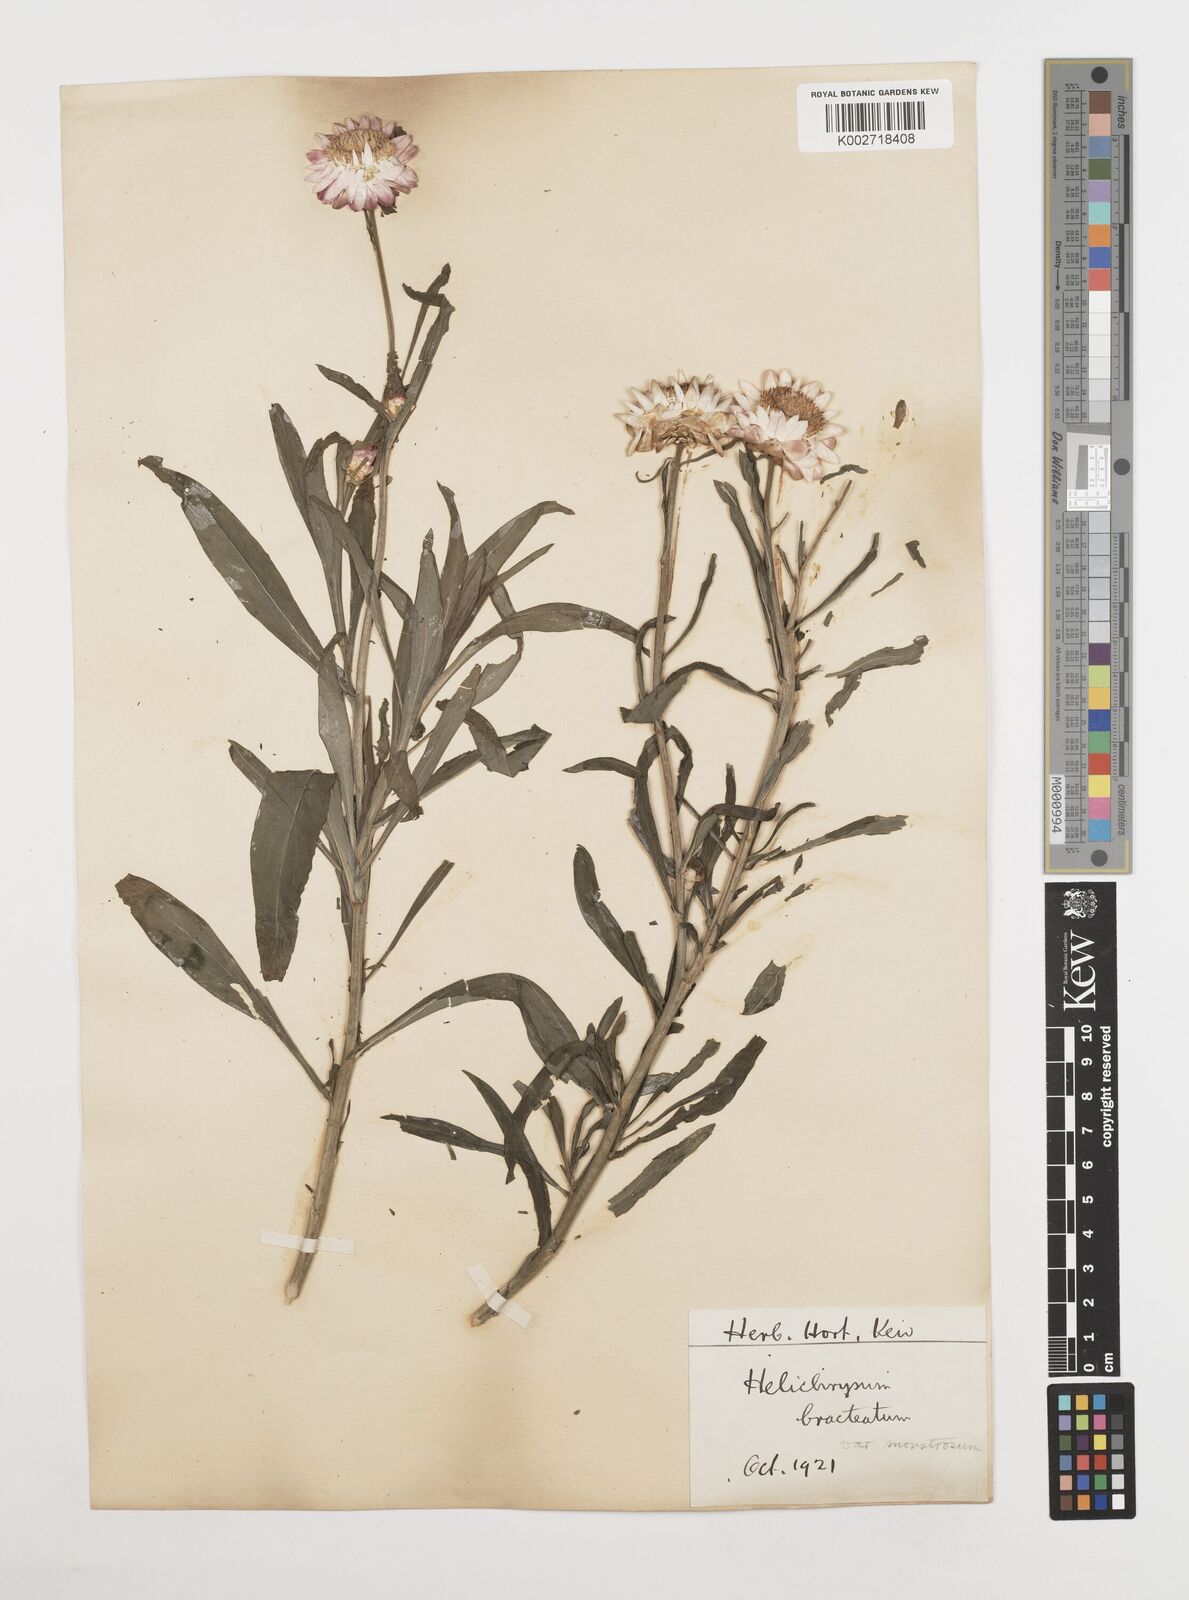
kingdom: Plantae
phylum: Tracheophyta
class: Magnoliopsida
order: Asterales
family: Asteraceae
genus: Xerochrysum
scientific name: Xerochrysum bracteatum
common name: Bracted strawflower
